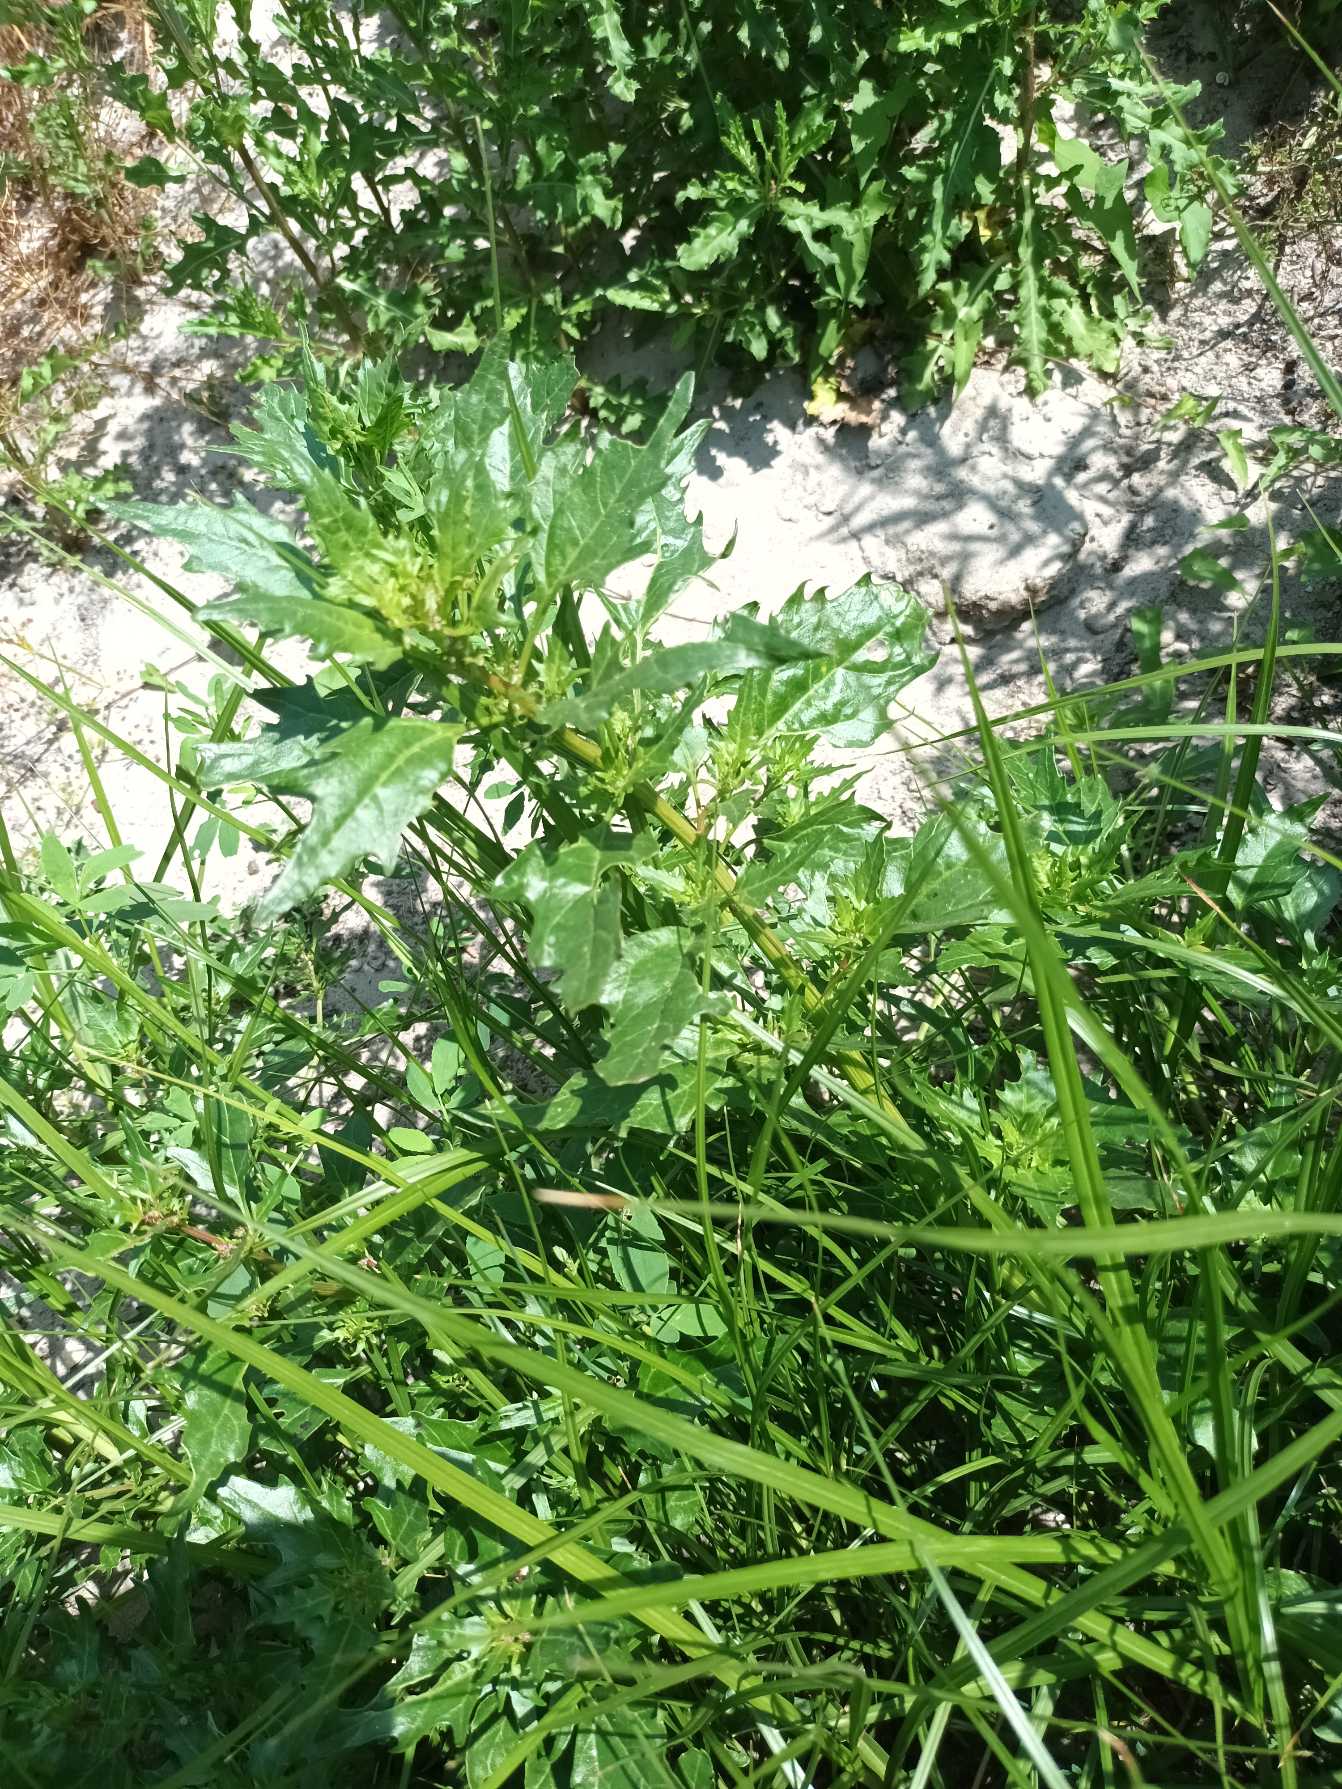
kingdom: Plantae
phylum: Tracheophyta
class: Magnoliopsida
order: Caryophyllales
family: Amaranthaceae
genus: Oxybasis
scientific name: Oxybasis rubra
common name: Rød gåsefod
